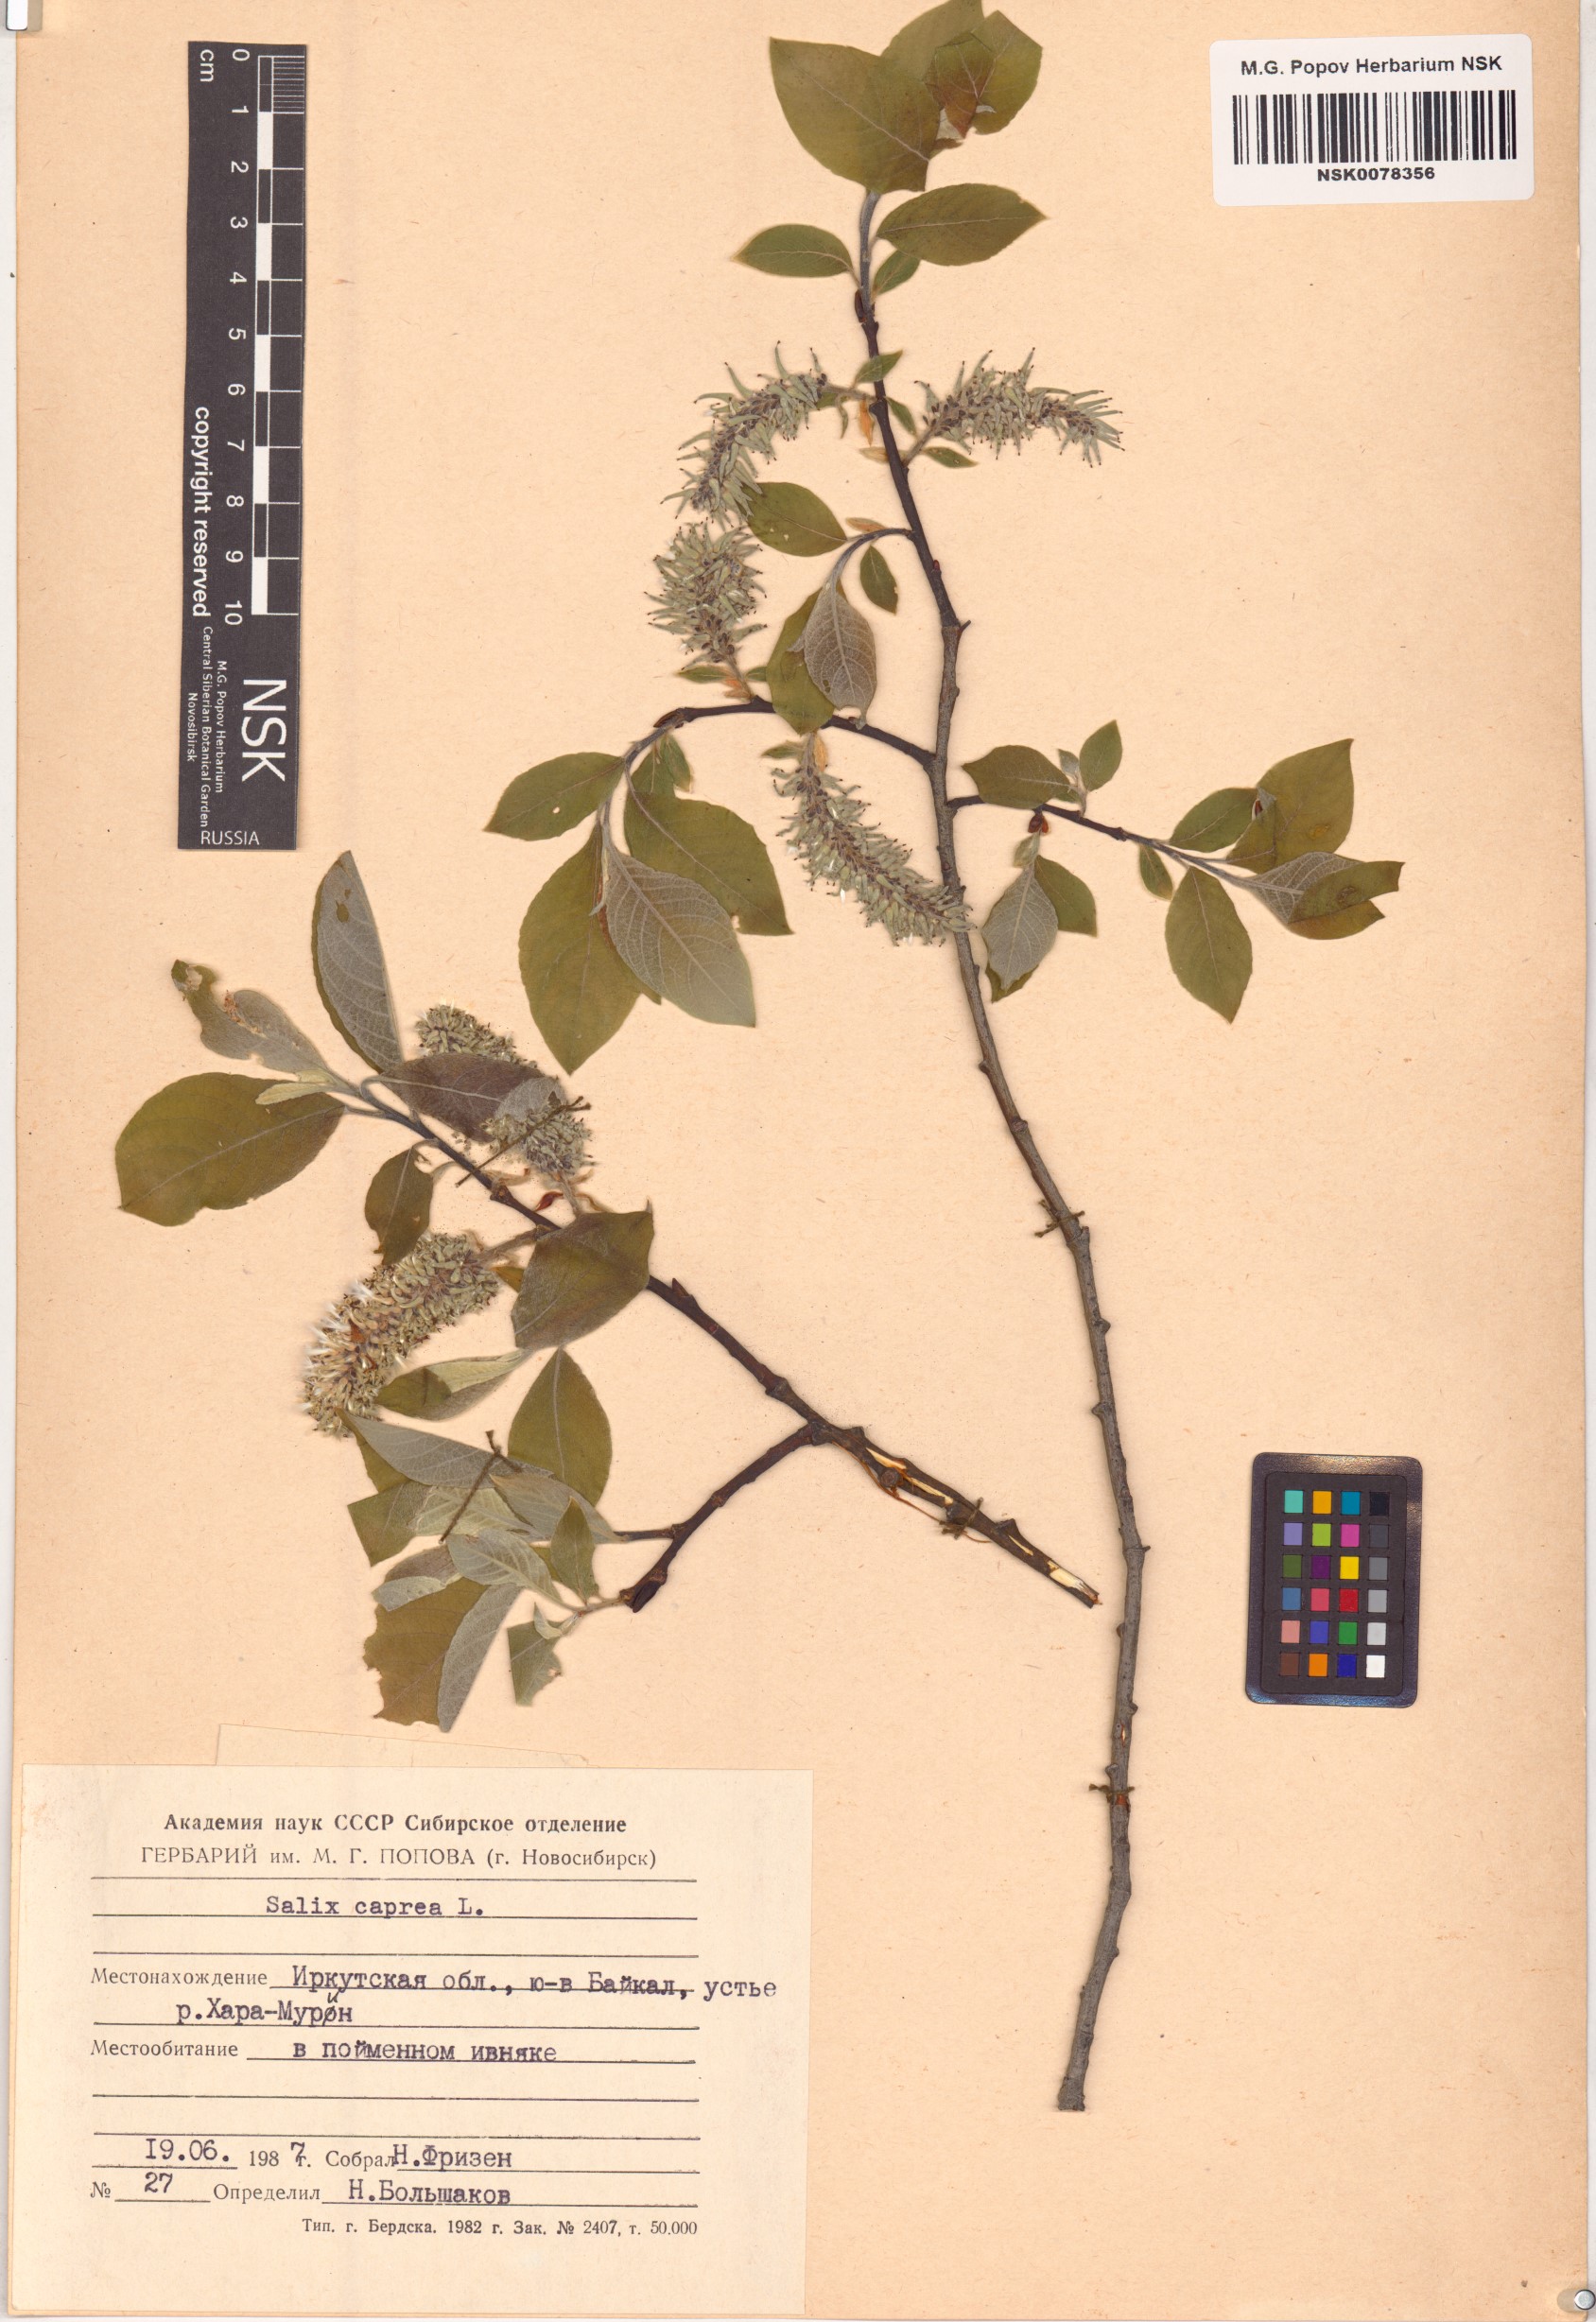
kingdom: Plantae
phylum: Tracheophyta
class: Magnoliopsida
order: Malpighiales
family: Salicaceae
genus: Salix
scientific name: Salix caprea
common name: Goat willow
